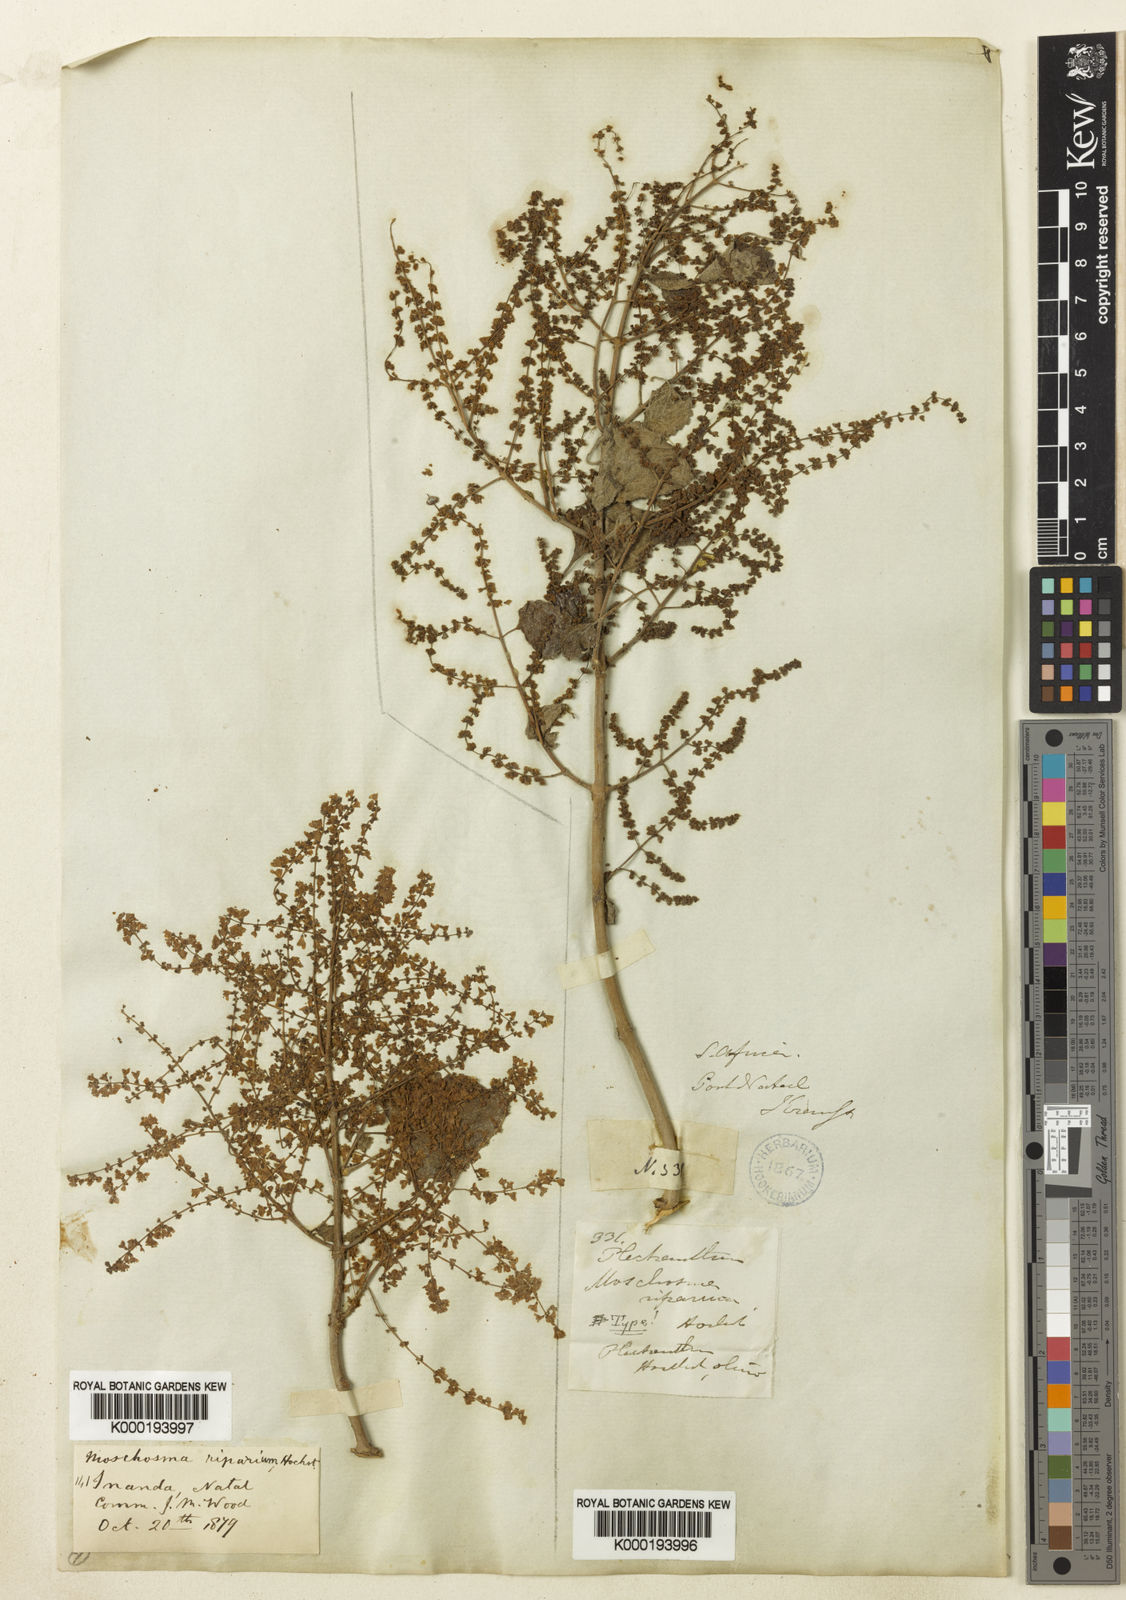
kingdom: Plantae
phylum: Tracheophyta
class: Magnoliopsida
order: Lamiales
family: Lamiaceae
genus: Tetradenia
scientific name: Tetradenia riparia
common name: Gingerbush
